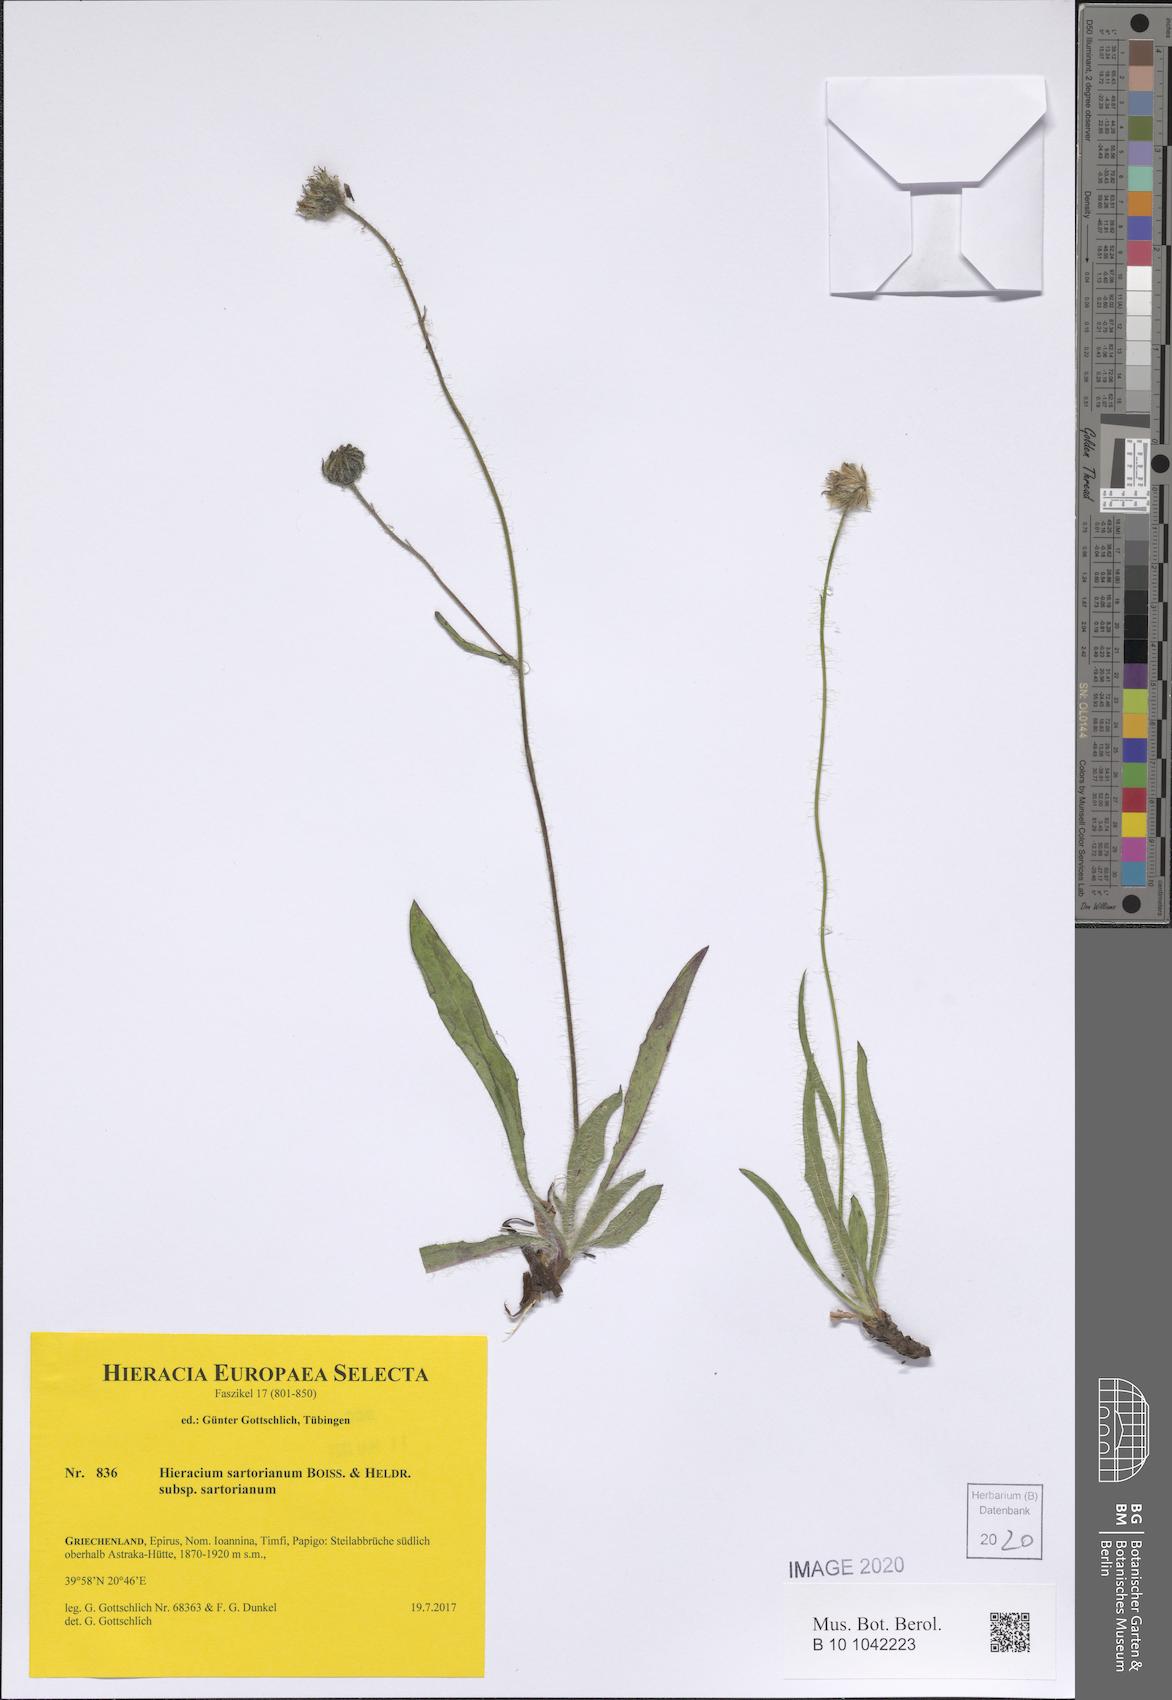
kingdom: Plantae
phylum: Tracheophyta
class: Magnoliopsida
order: Asterales
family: Asteraceae
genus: Hieracium
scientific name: Hieracium sartorianum
